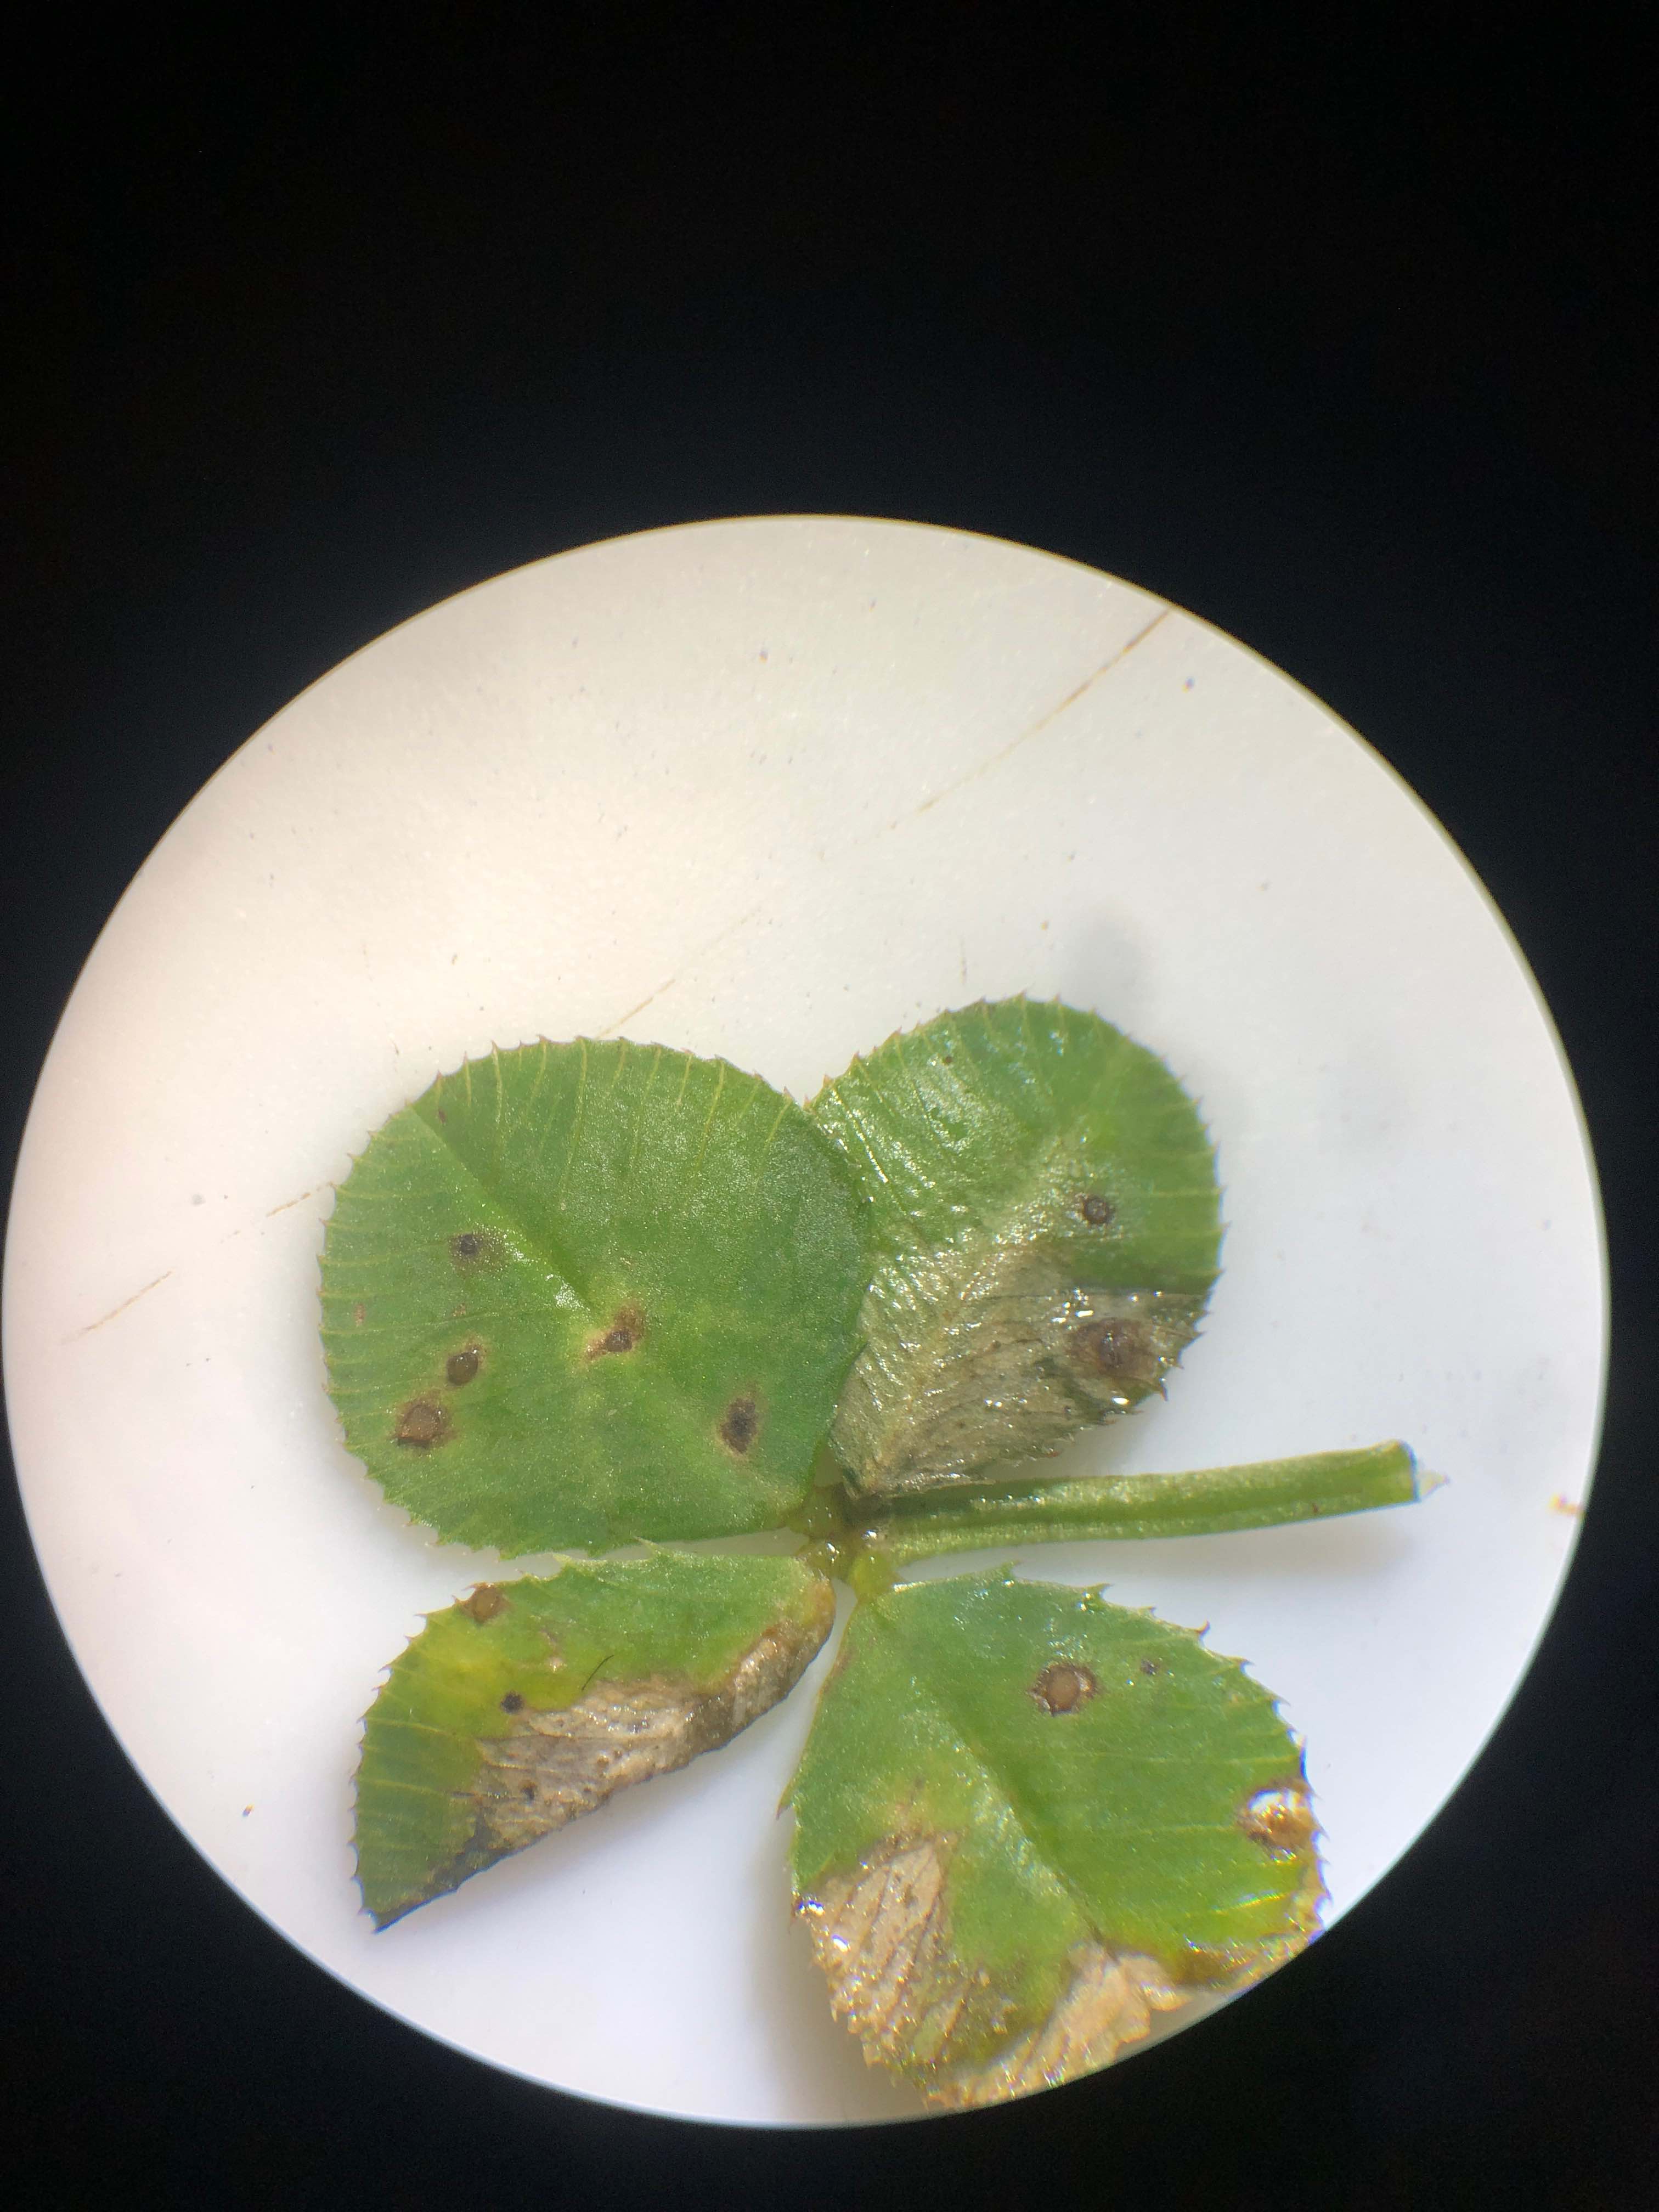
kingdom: Fungi
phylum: Ascomycota
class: Leotiomycetes
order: Helotiales
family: Drepanopezizaceae
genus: Pseudopeziza
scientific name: Pseudopeziza trifolii
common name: kløver-bladskive
